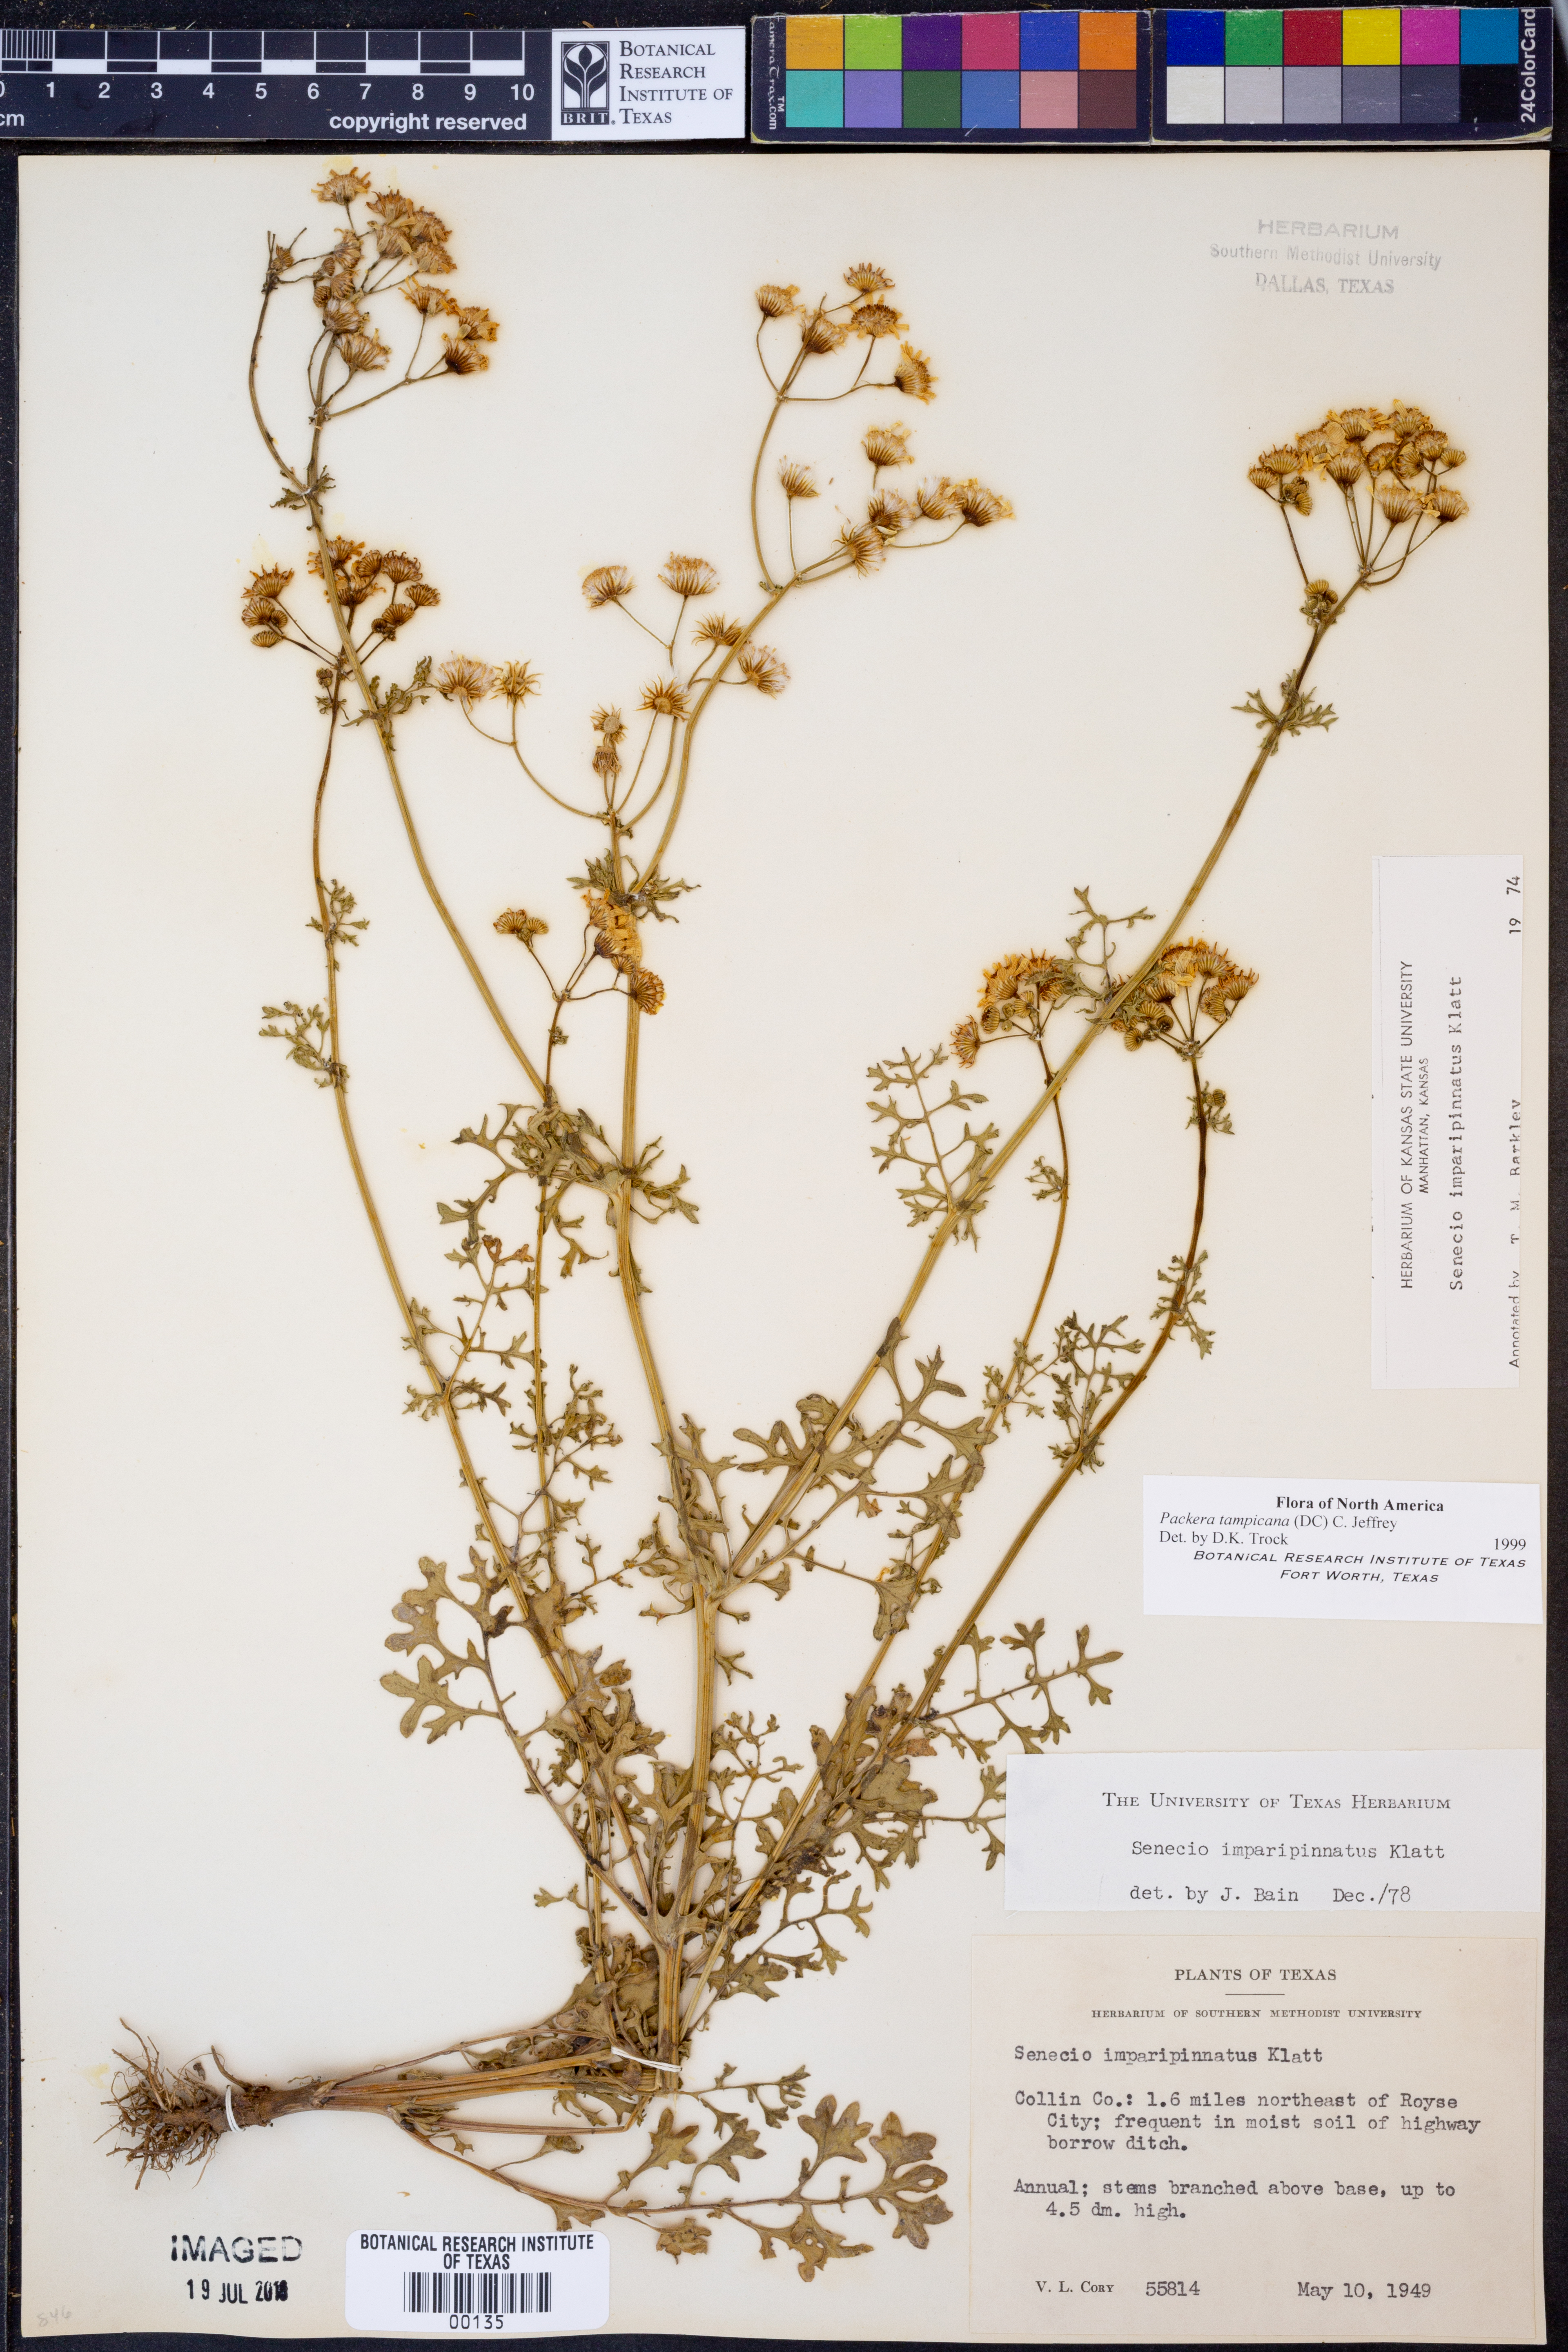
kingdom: Plantae
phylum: Tracheophyta
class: Magnoliopsida
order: Asterales
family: Asteraceae
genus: Packera
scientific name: Packera tampicana
